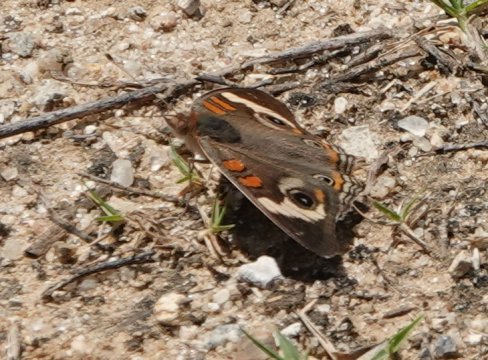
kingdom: Animalia
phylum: Arthropoda
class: Insecta
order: Lepidoptera
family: Nymphalidae
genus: Junonia
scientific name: Junonia coenia
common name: Common Buckeye
